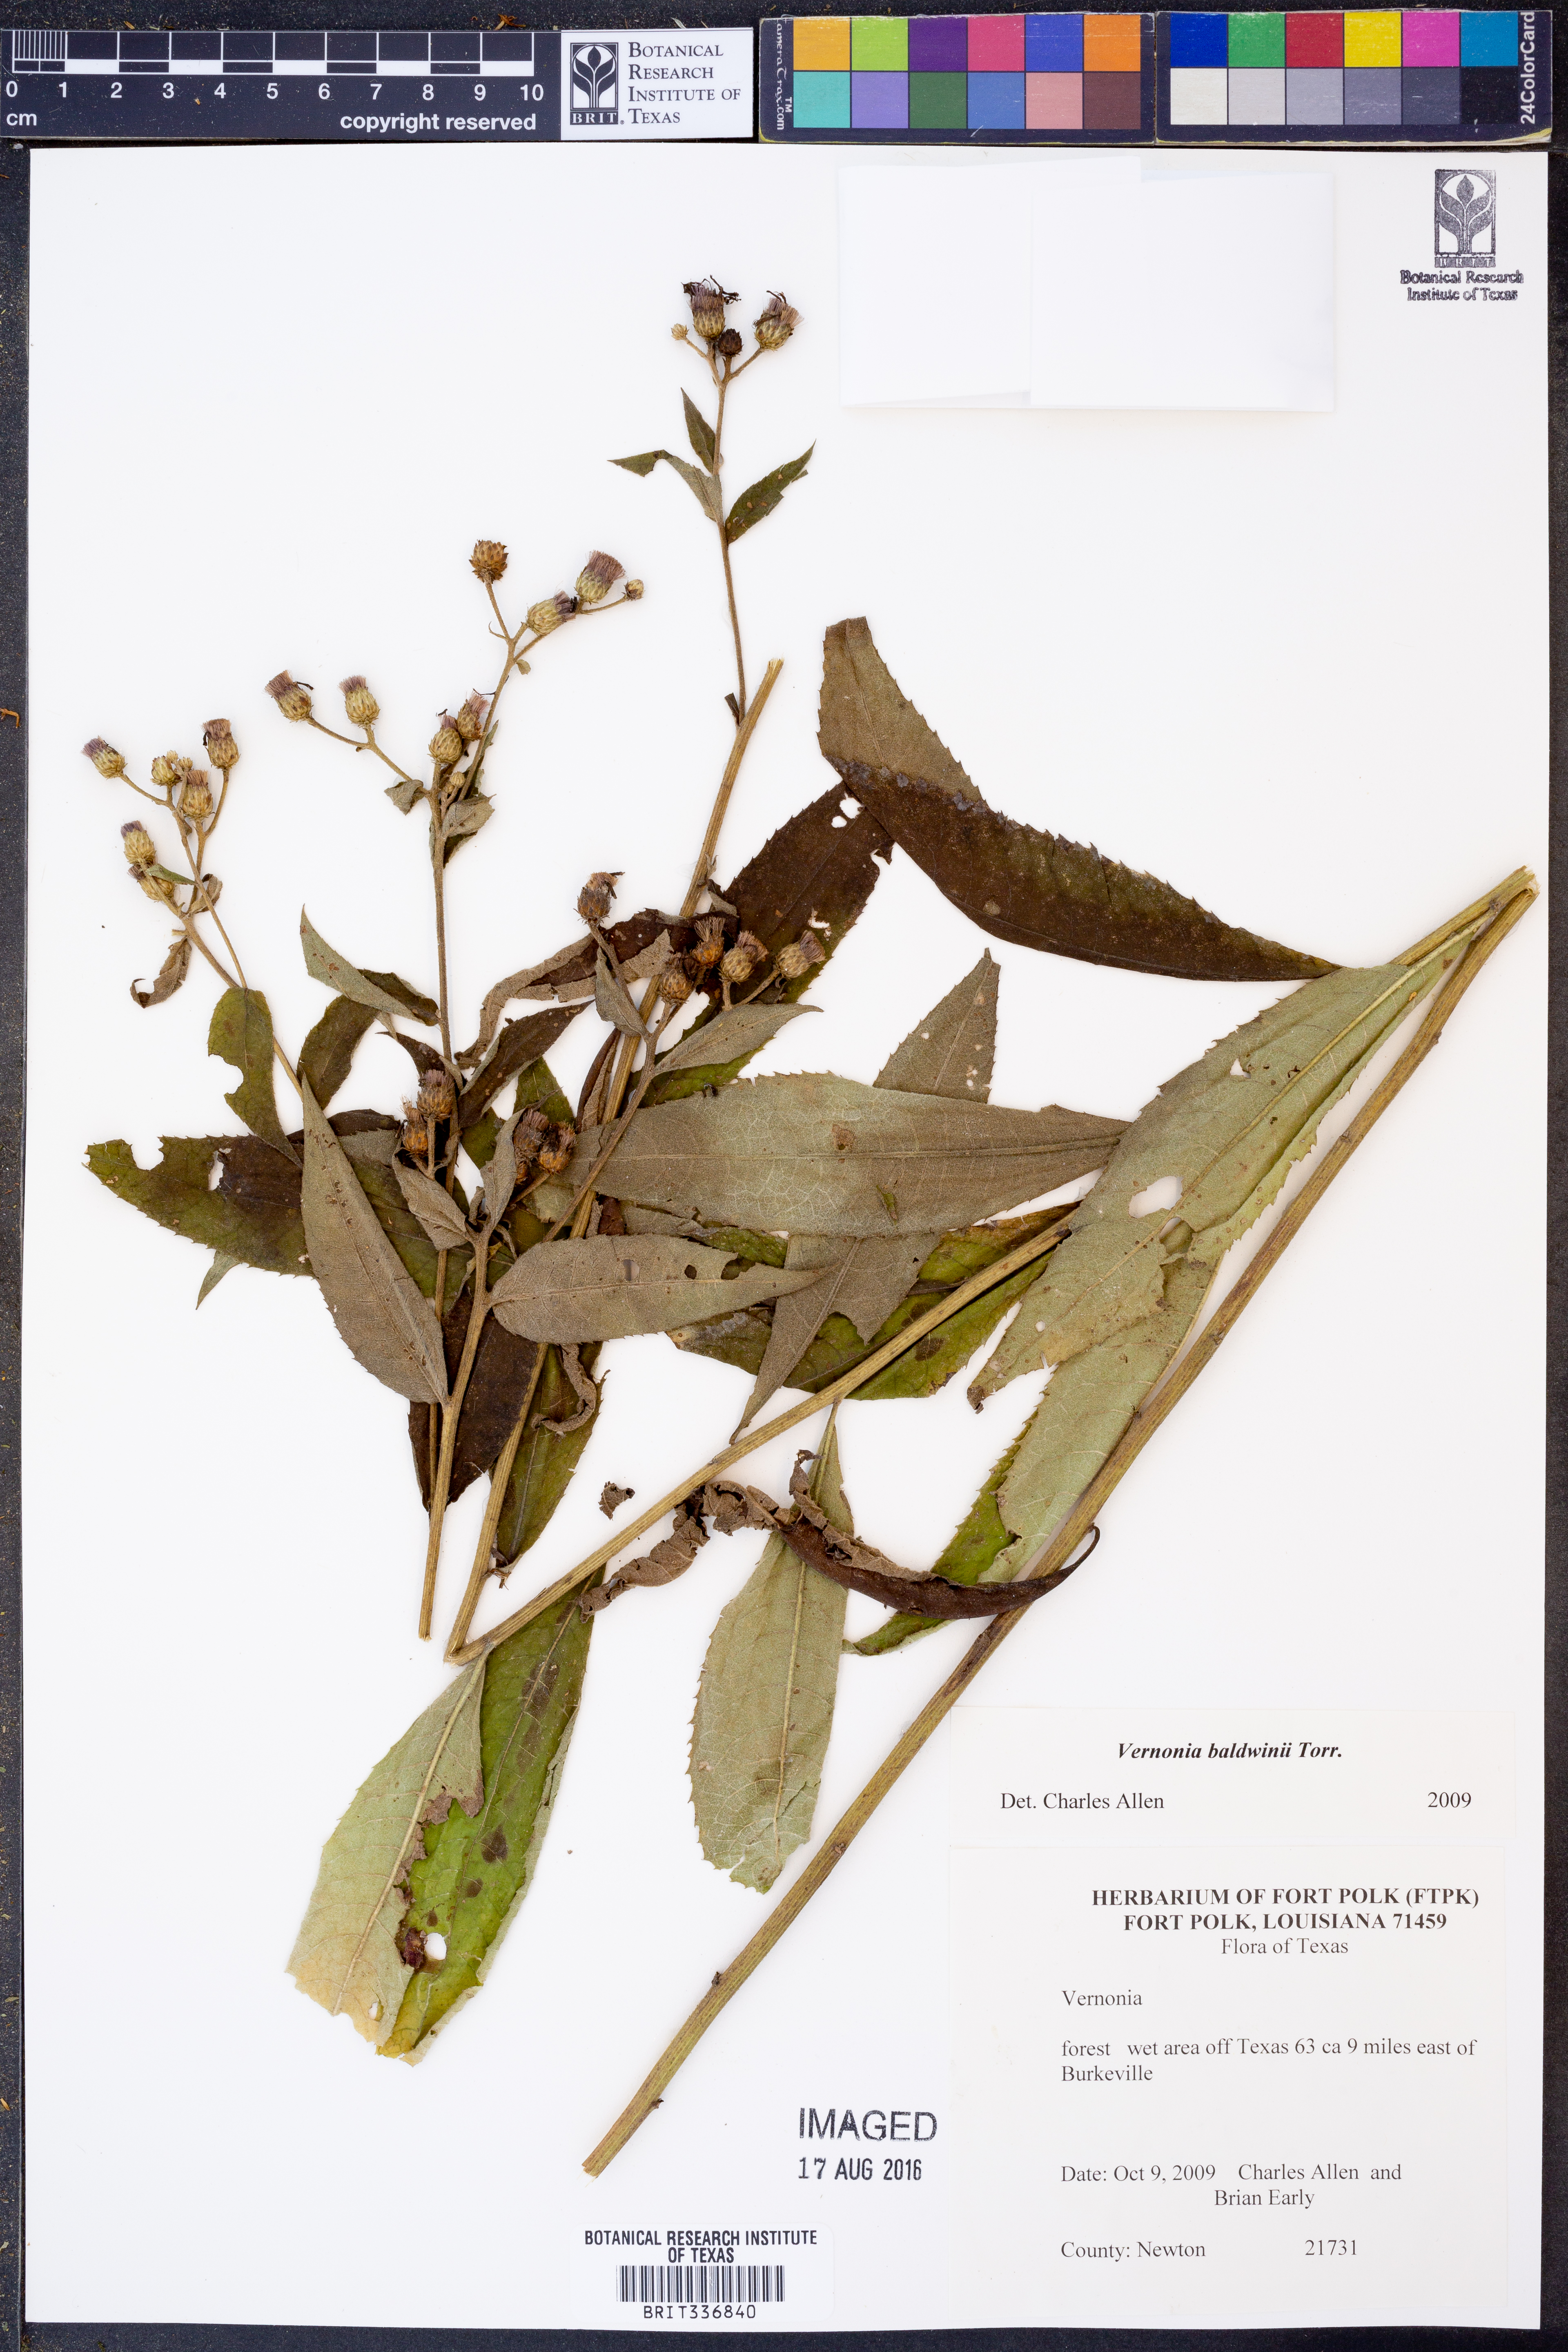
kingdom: Plantae
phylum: Tracheophyta
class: Magnoliopsida
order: Asterales
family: Asteraceae
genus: Vernonia
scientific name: Vernonia baldwinii
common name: Western ironweed
